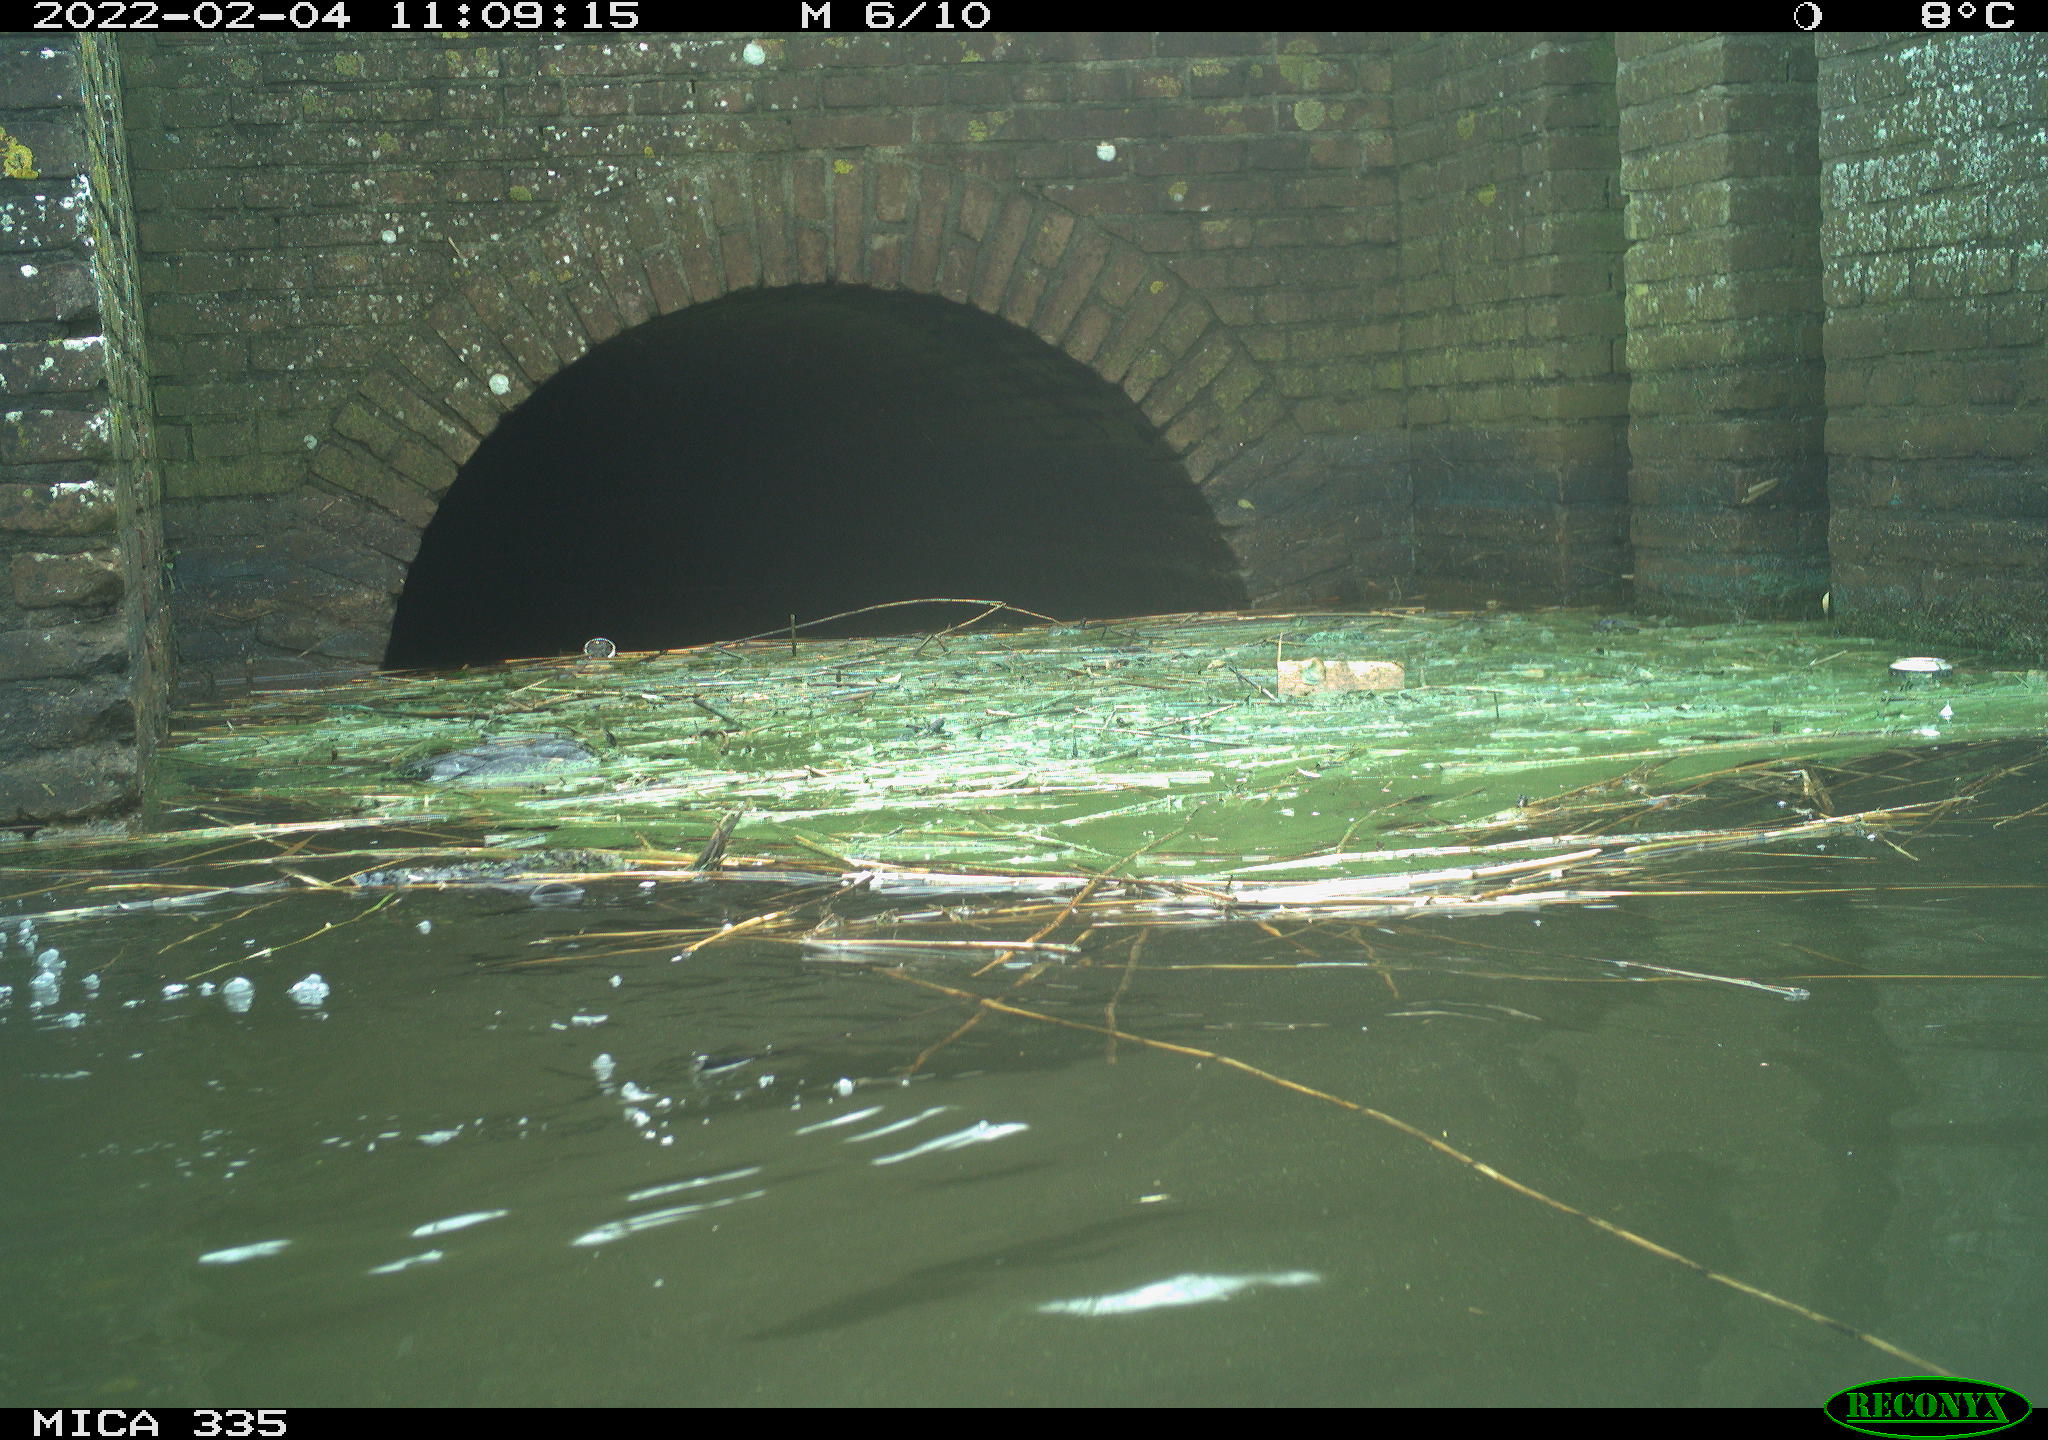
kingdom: Animalia
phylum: Chordata
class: Aves
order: Suliformes
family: Phalacrocoracidae
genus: Phalacrocorax
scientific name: Phalacrocorax carbo
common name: Great cormorant
